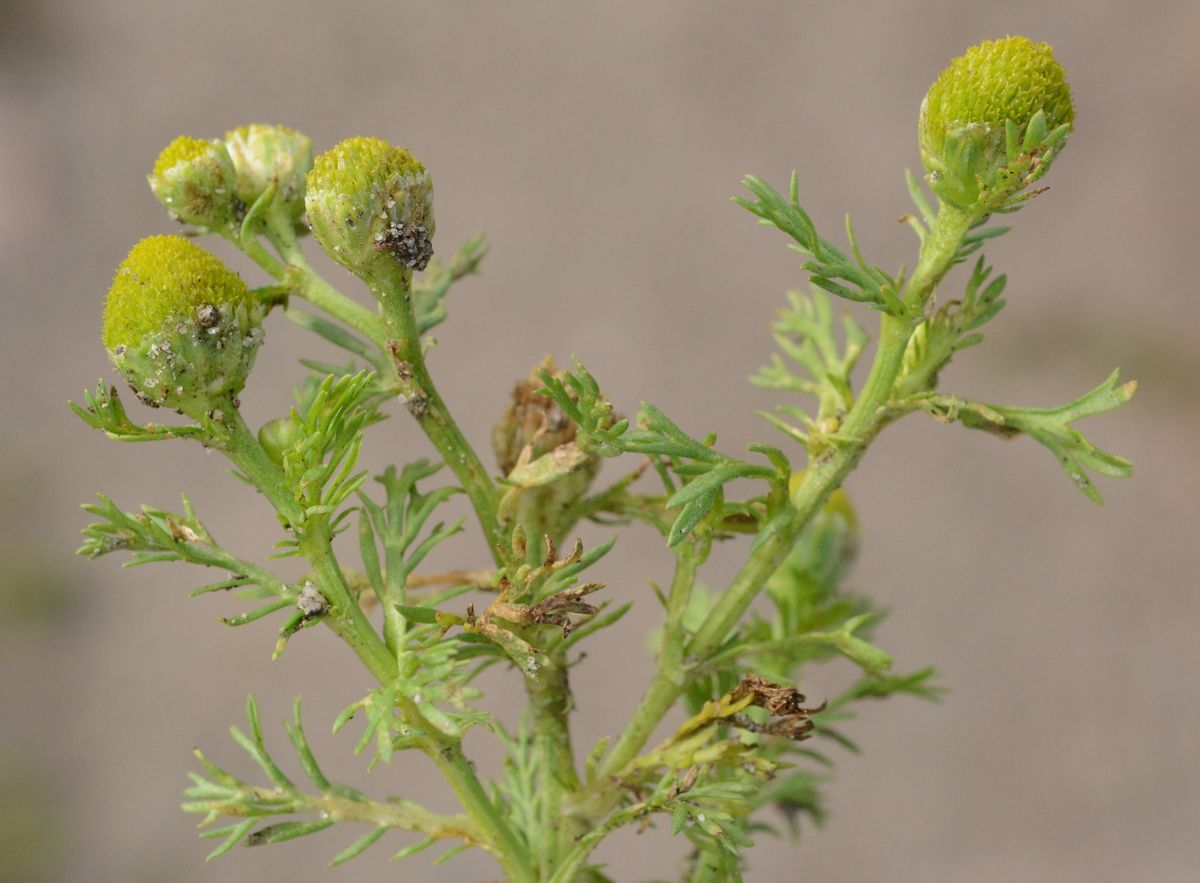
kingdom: Plantae
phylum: Tracheophyta
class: Magnoliopsida
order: Asterales
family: Asteraceae
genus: Matricaria
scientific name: Matricaria discoidea
